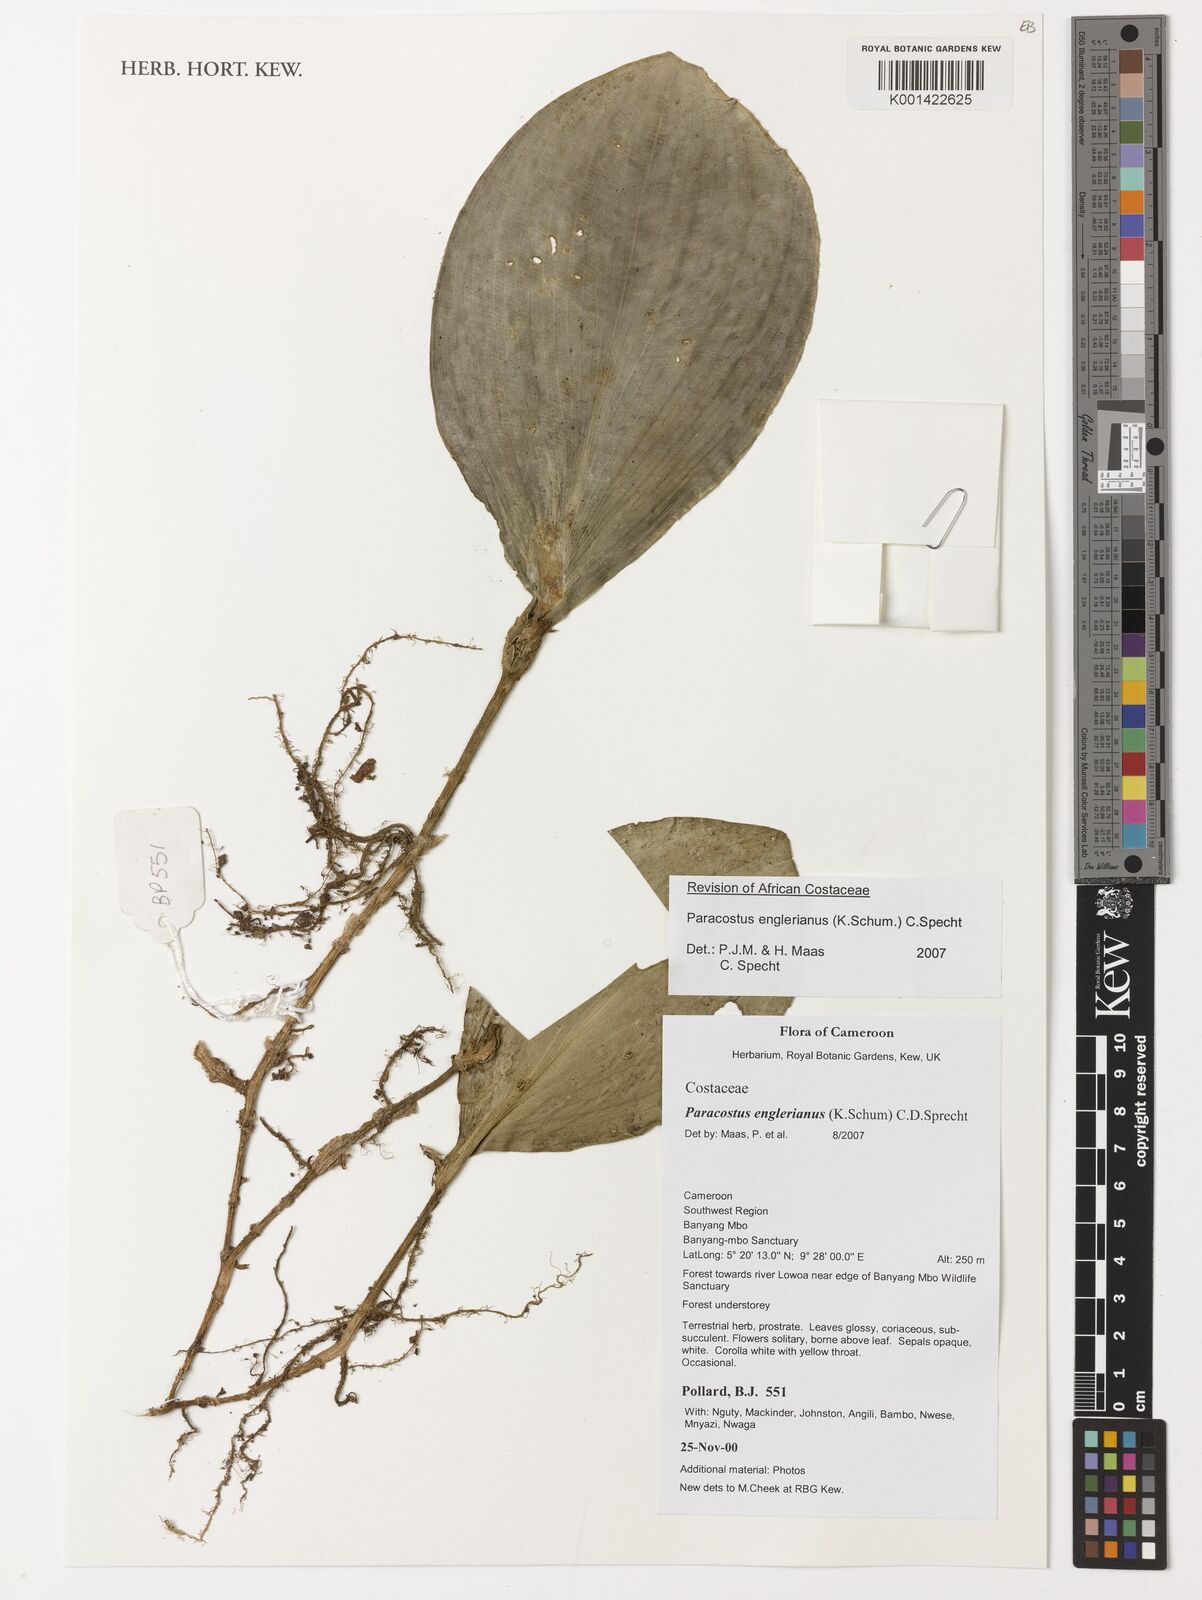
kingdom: Plantae
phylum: Tracheophyta
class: Liliopsida
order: Zingiberales
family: Costaceae
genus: Paracostus
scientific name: Paracostus englerianus
